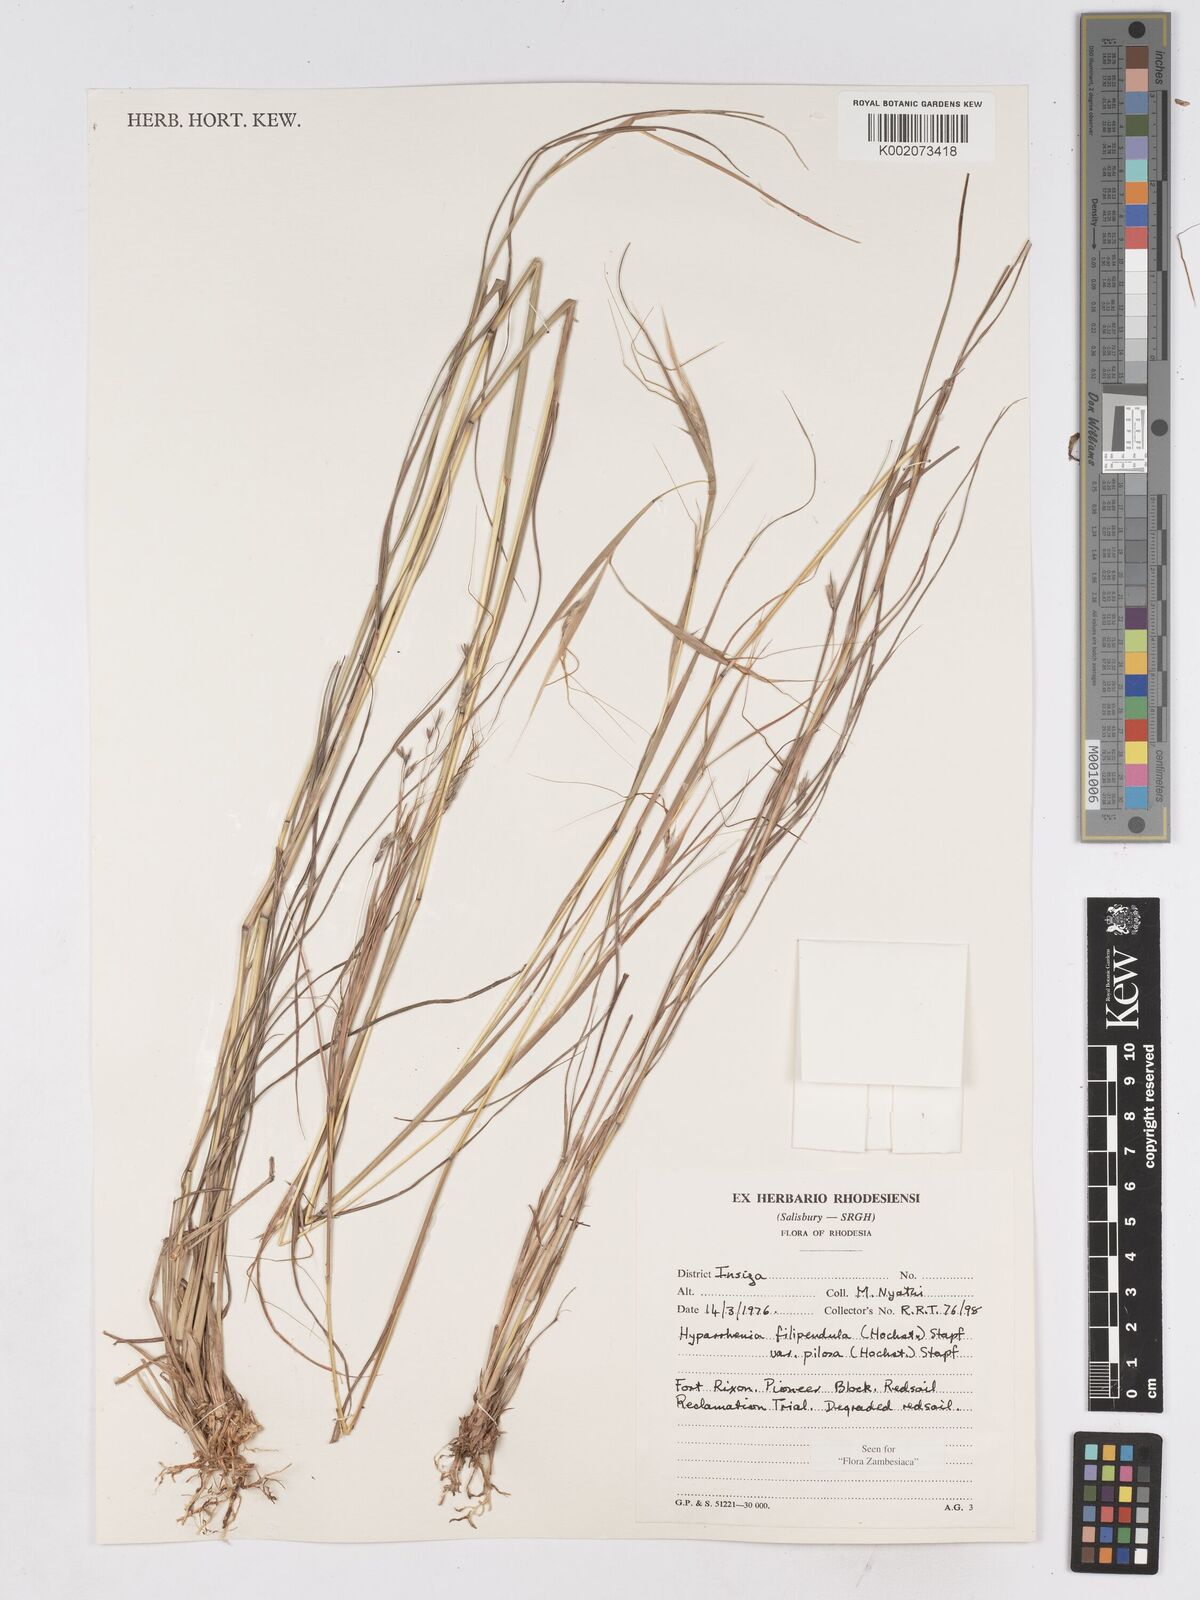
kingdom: Plantae
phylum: Tracheophyta
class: Liliopsida
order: Poales
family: Poaceae
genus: Hyparrhenia
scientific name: Hyparrhenia filipendula
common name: Tambookie grass
